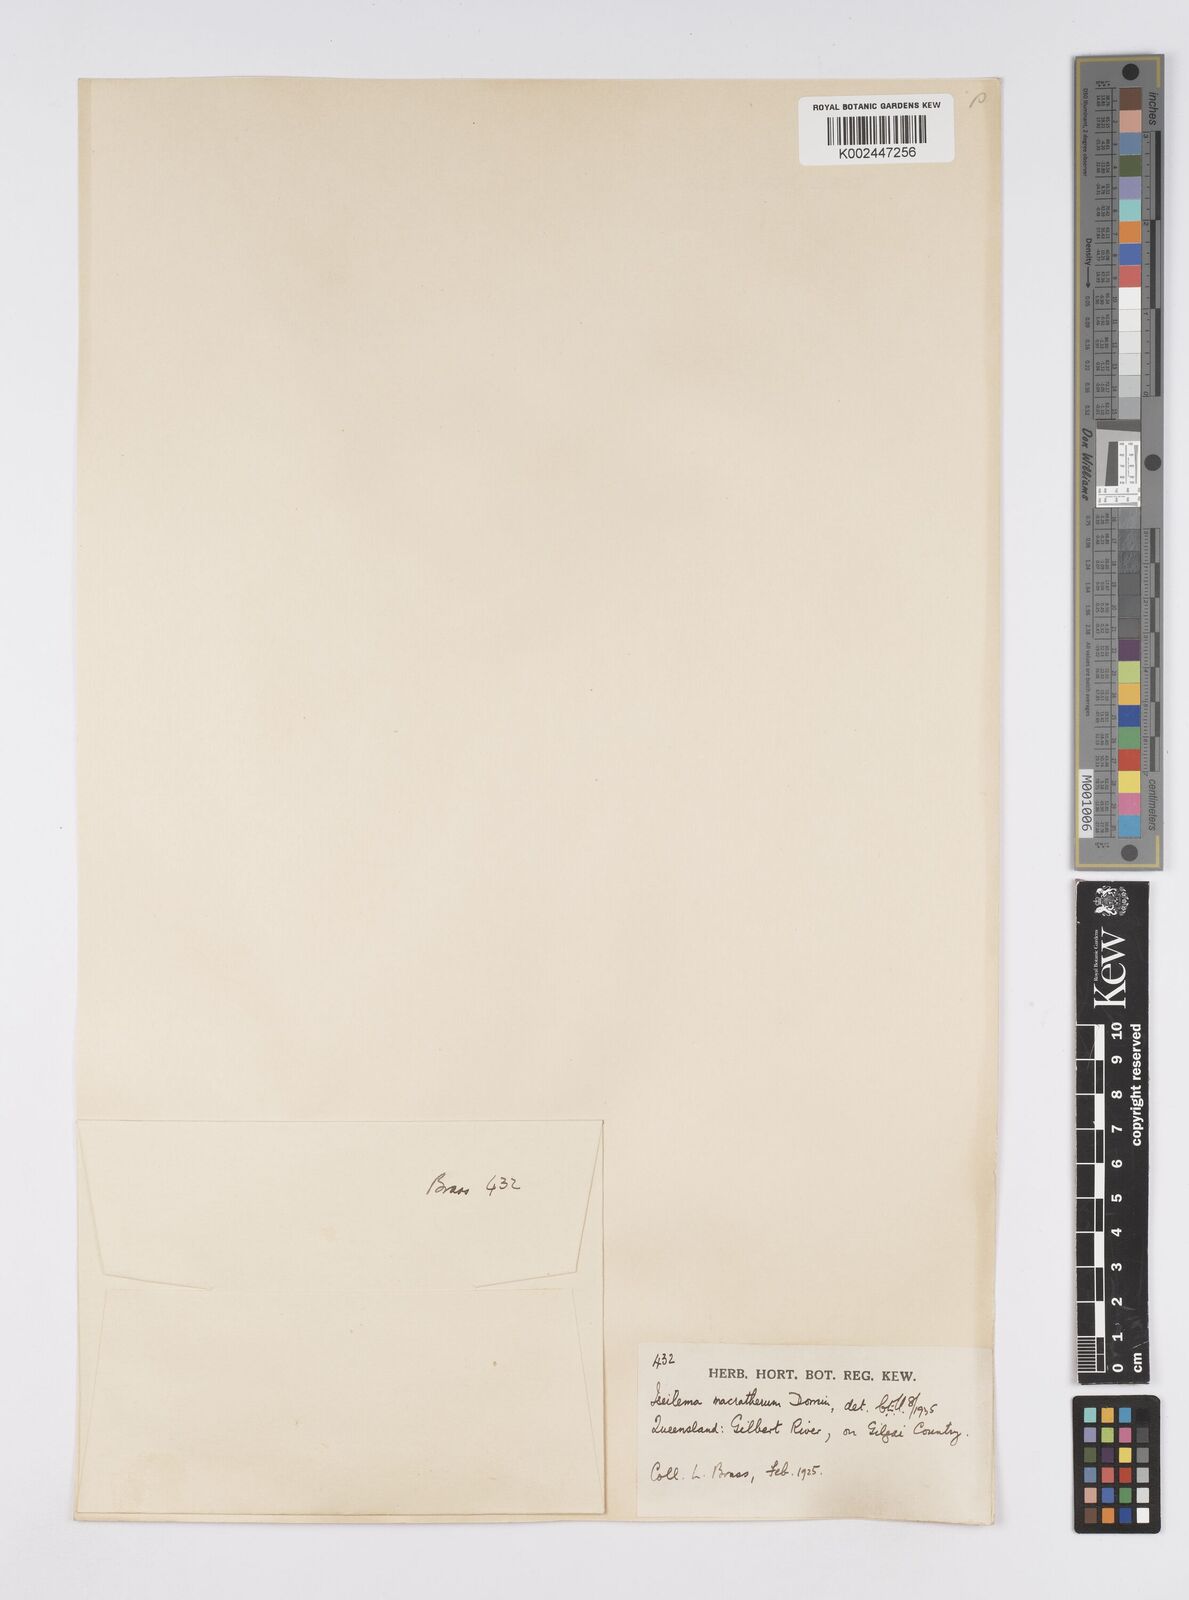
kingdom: Plantae
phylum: Tracheophyta
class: Liliopsida
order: Poales
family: Poaceae
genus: Iseilema
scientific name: Iseilema macratherum
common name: Bull flinders grass
